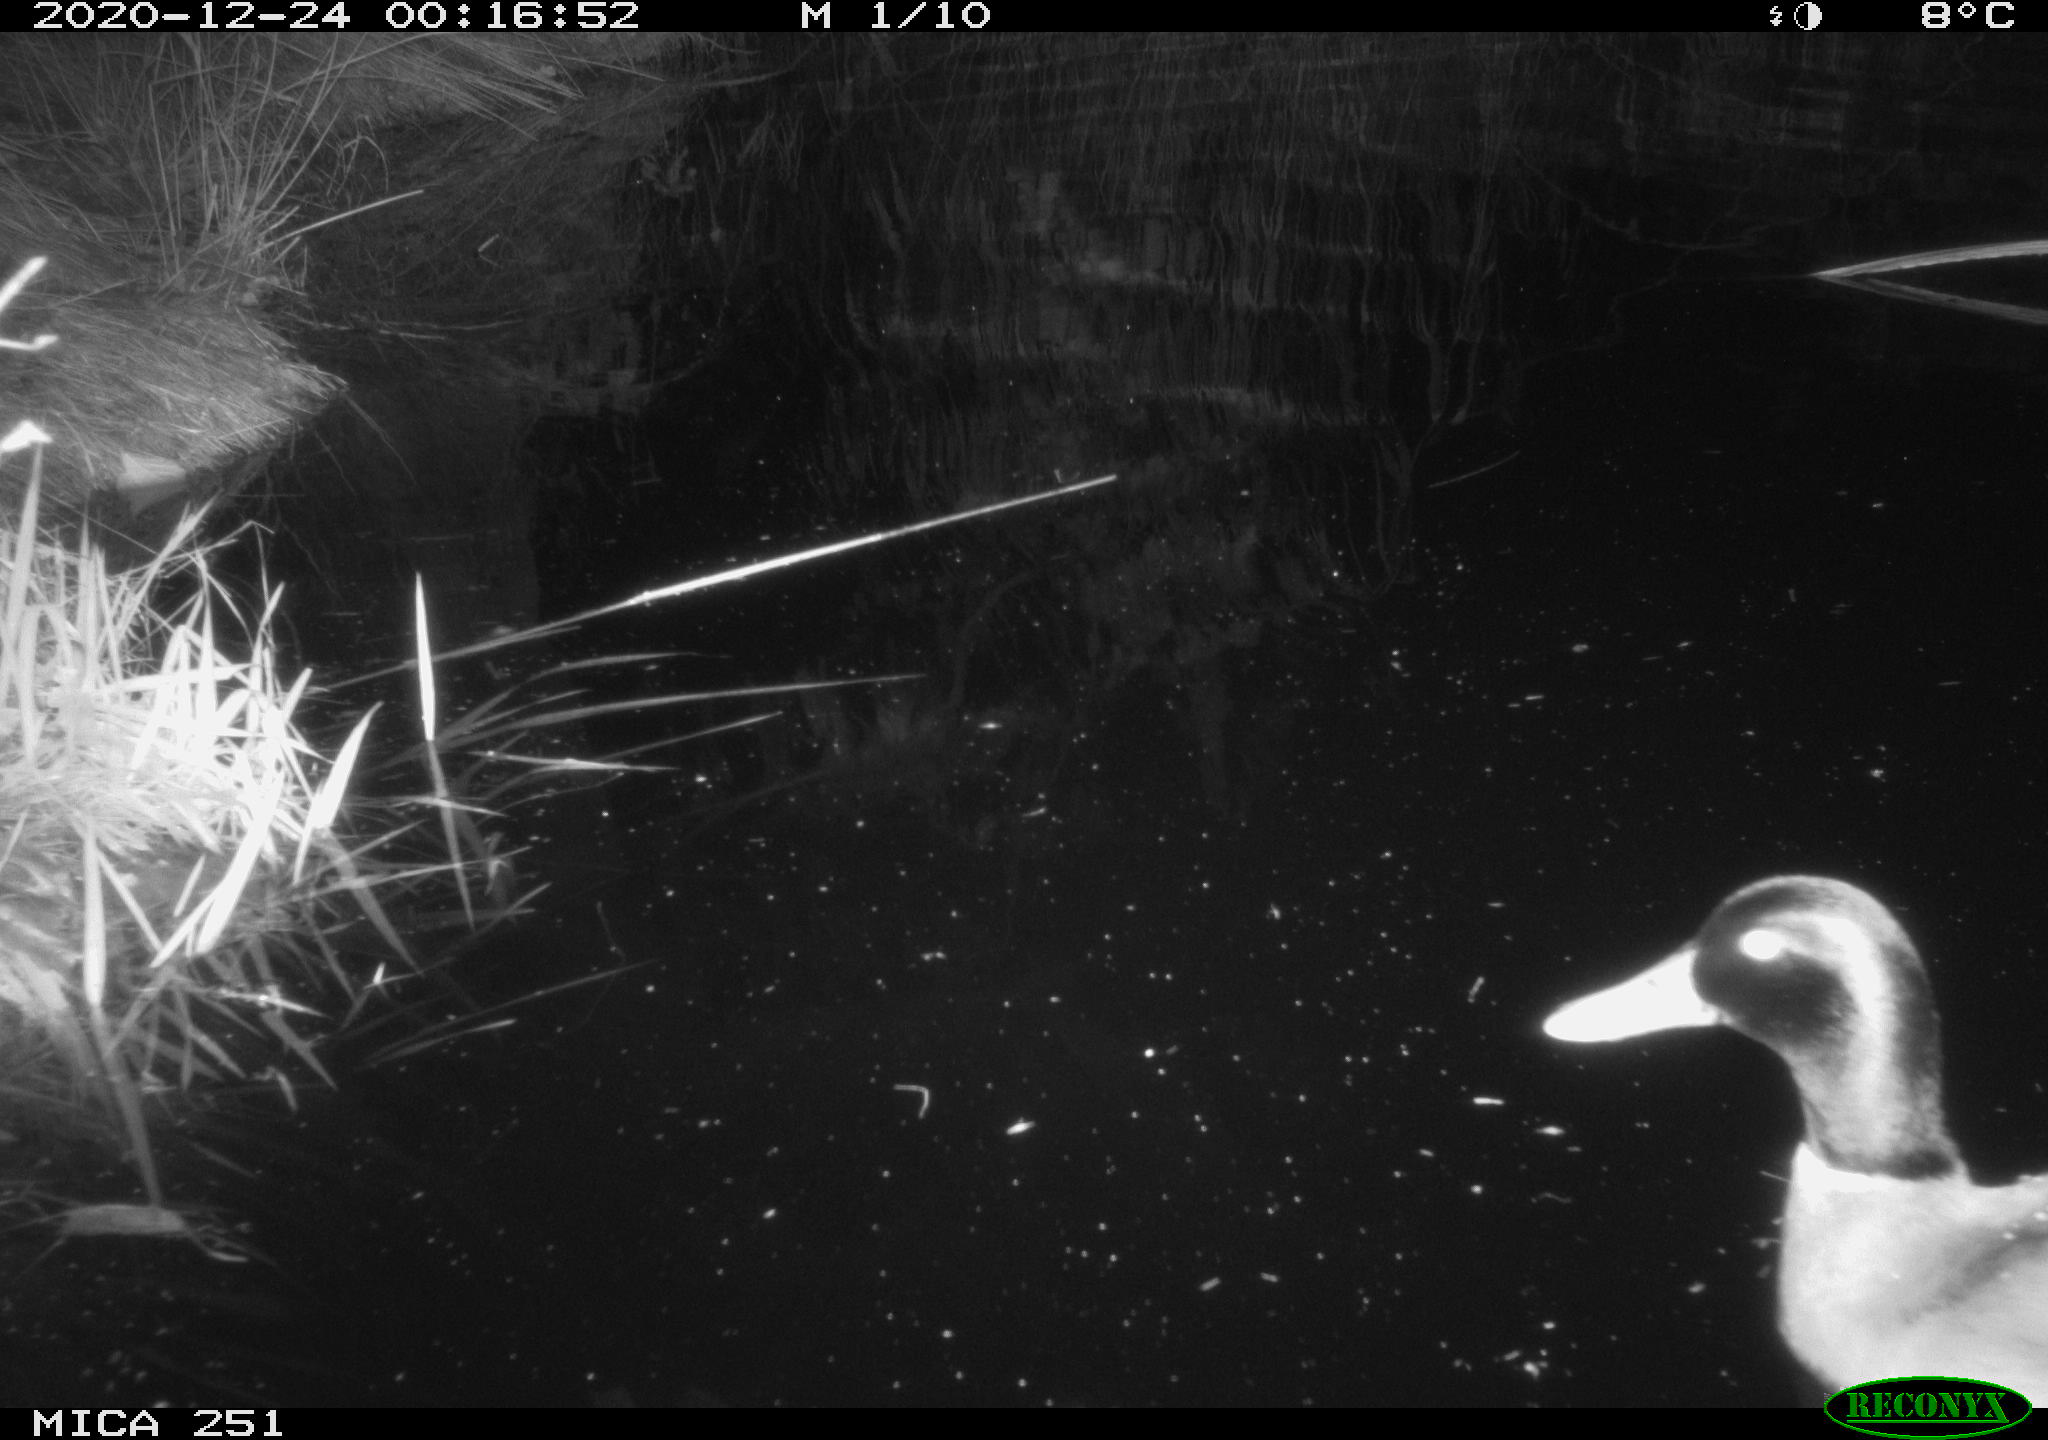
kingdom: Animalia
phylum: Chordata
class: Aves
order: Anseriformes
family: Anatidae
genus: Anas
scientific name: Anas platyrhynchos
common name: Mallard
